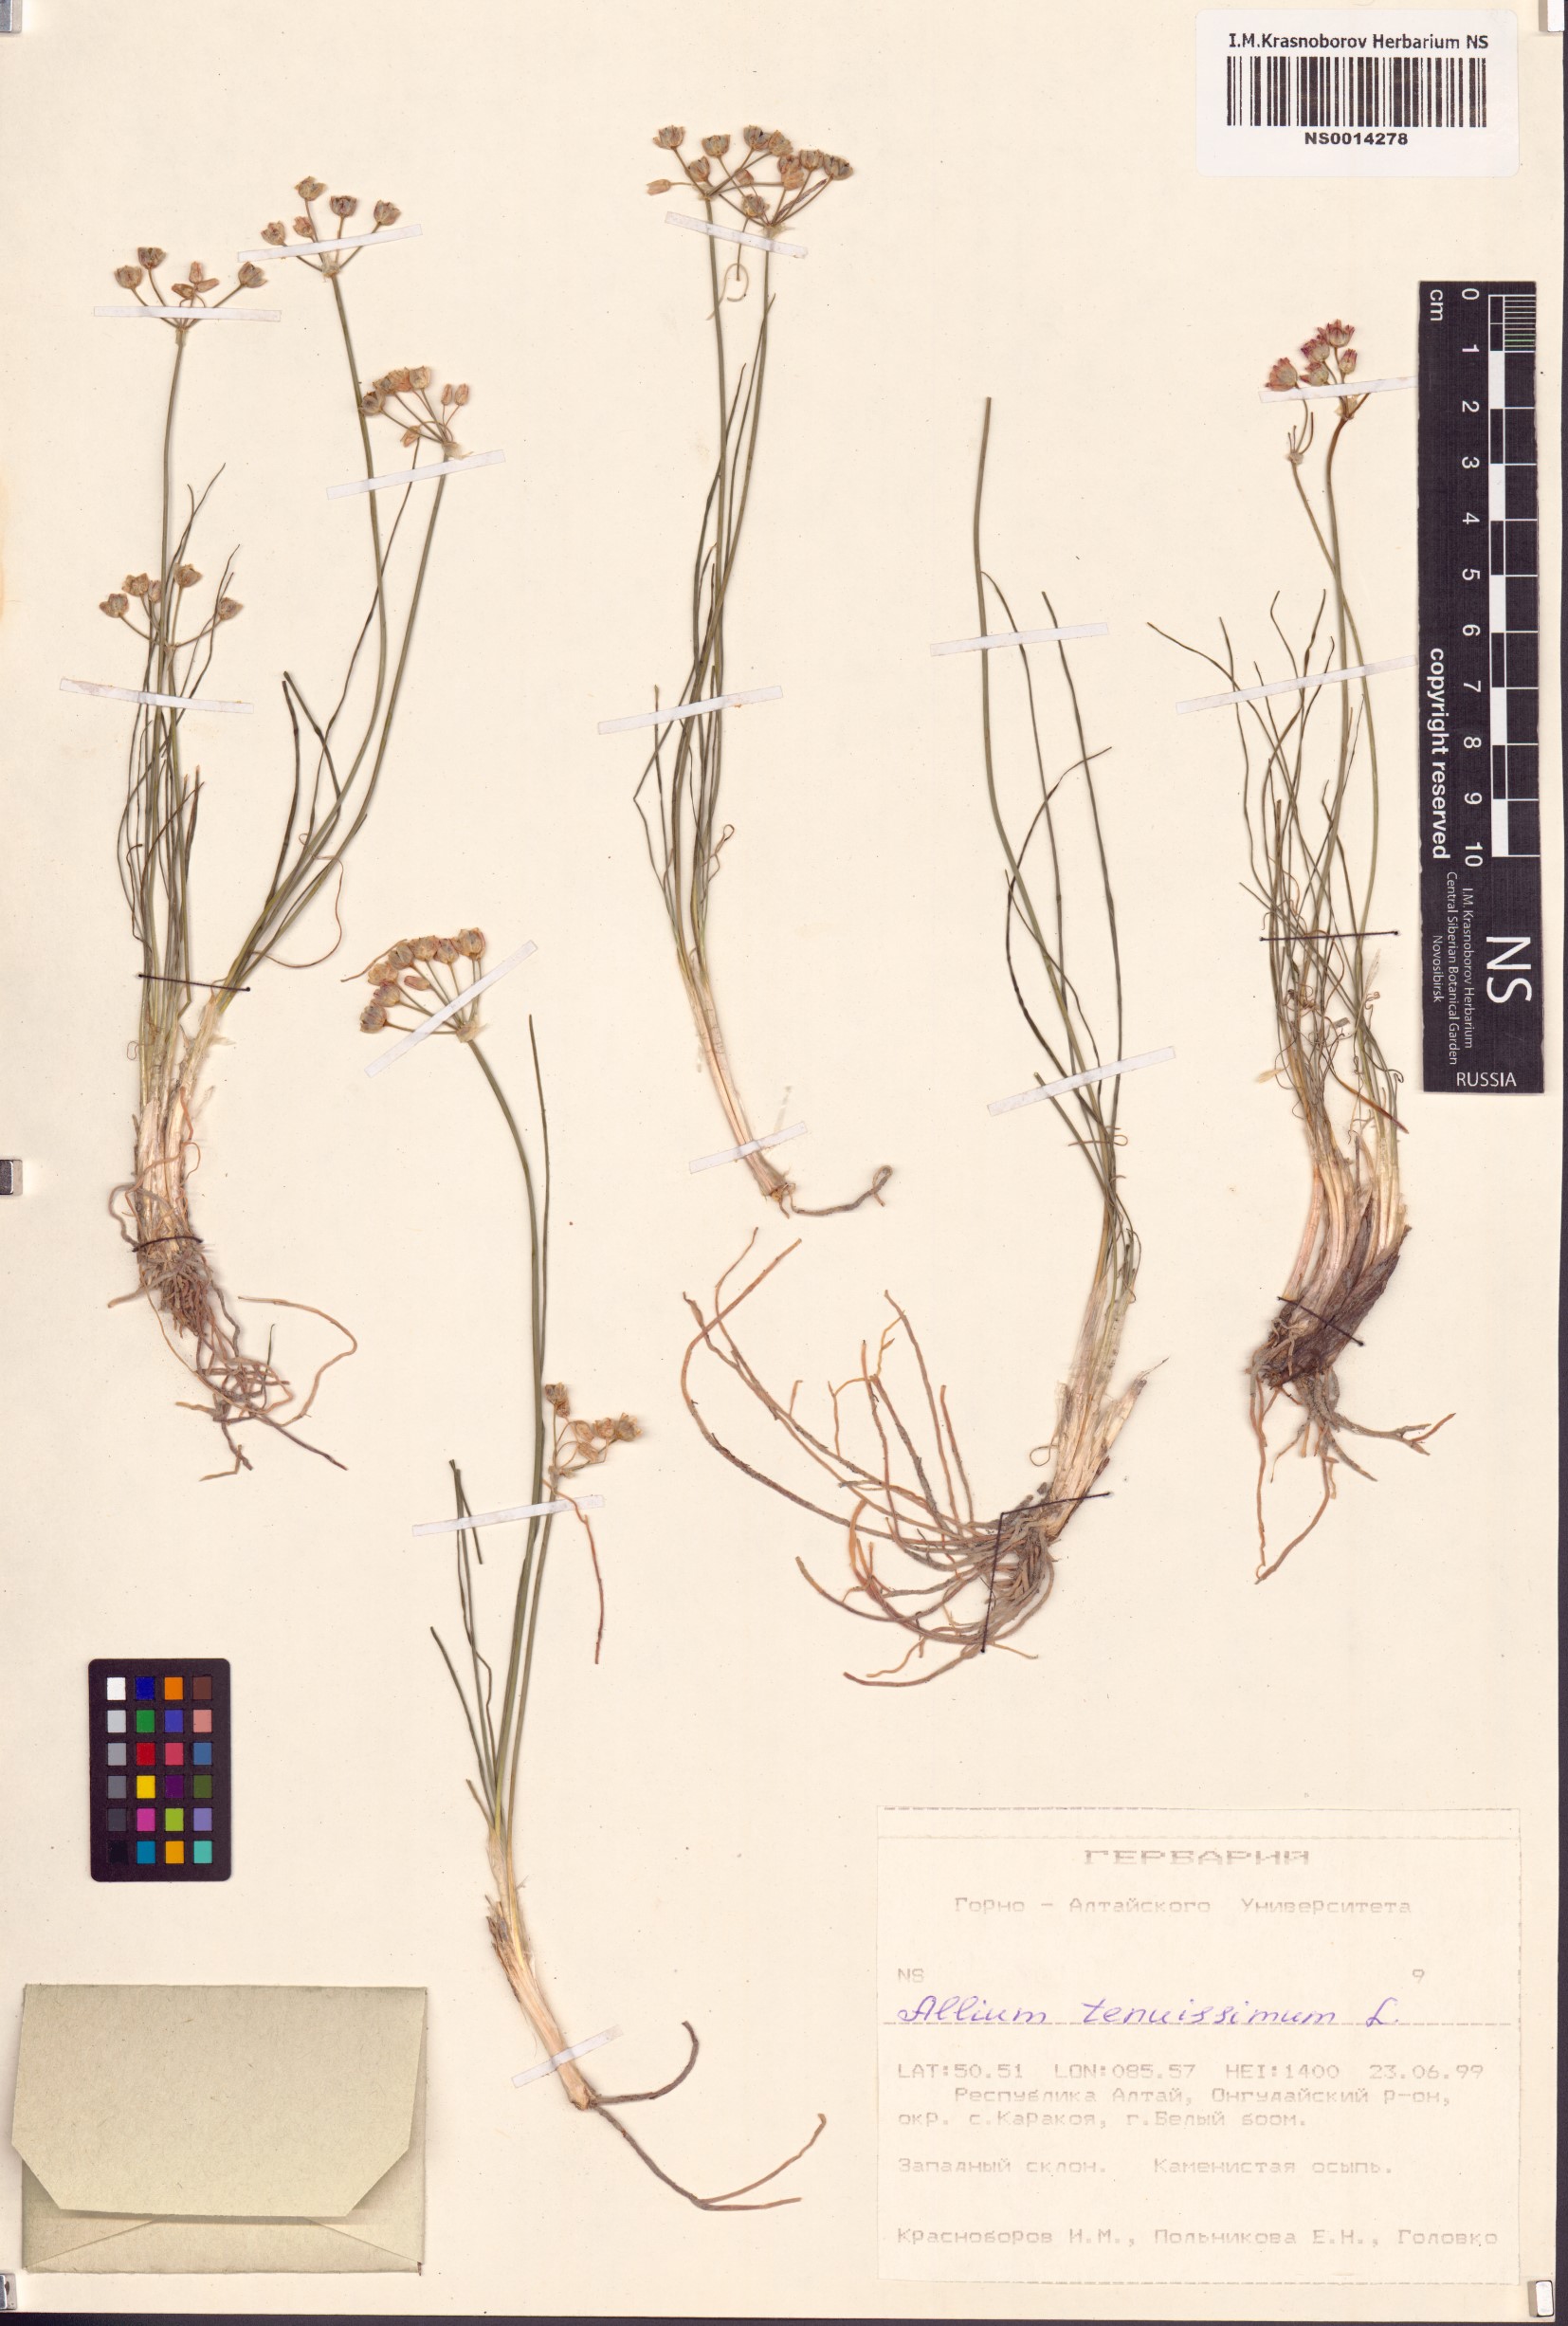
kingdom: Plantae
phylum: Tracheophyta
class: Liliopsida
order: Asparagales
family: Amaryllidaceae
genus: Allium
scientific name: Allium tenuissimum
